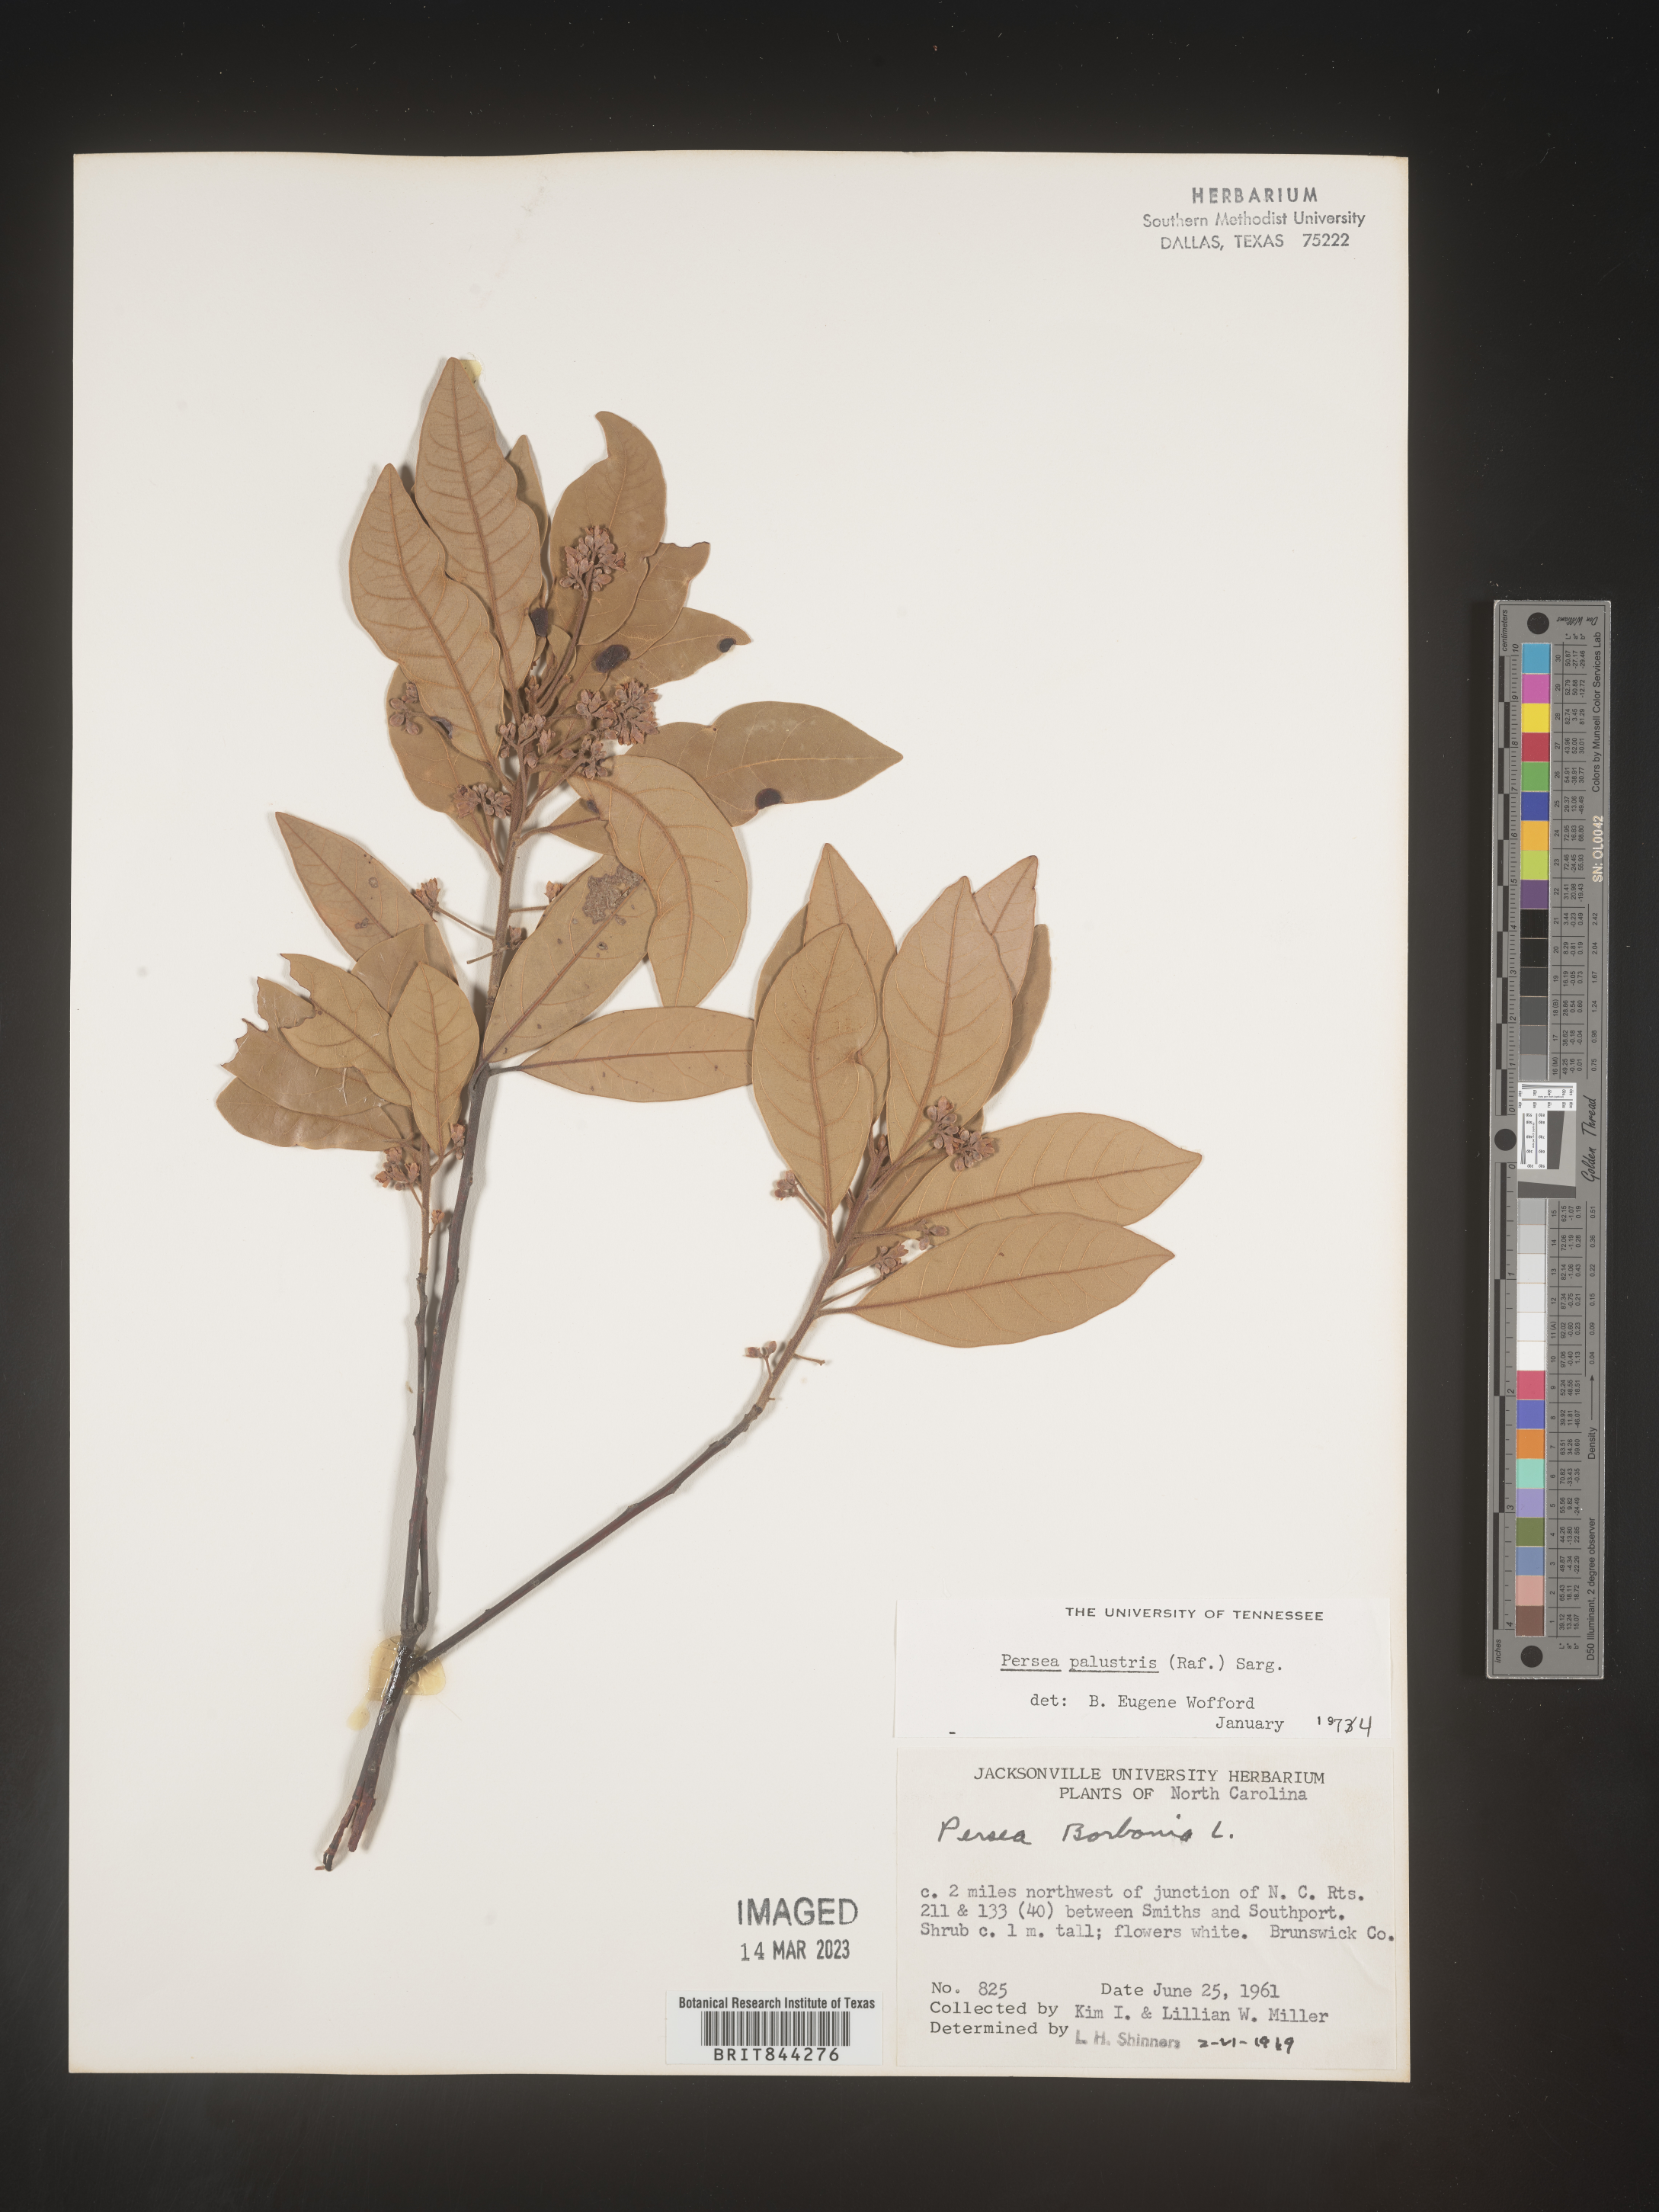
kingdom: Plantae
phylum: Tracheophyta
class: Magnoliopsida
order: Laurales
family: Lauraceae
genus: Persea
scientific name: Persea palustris
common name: Swampbay
